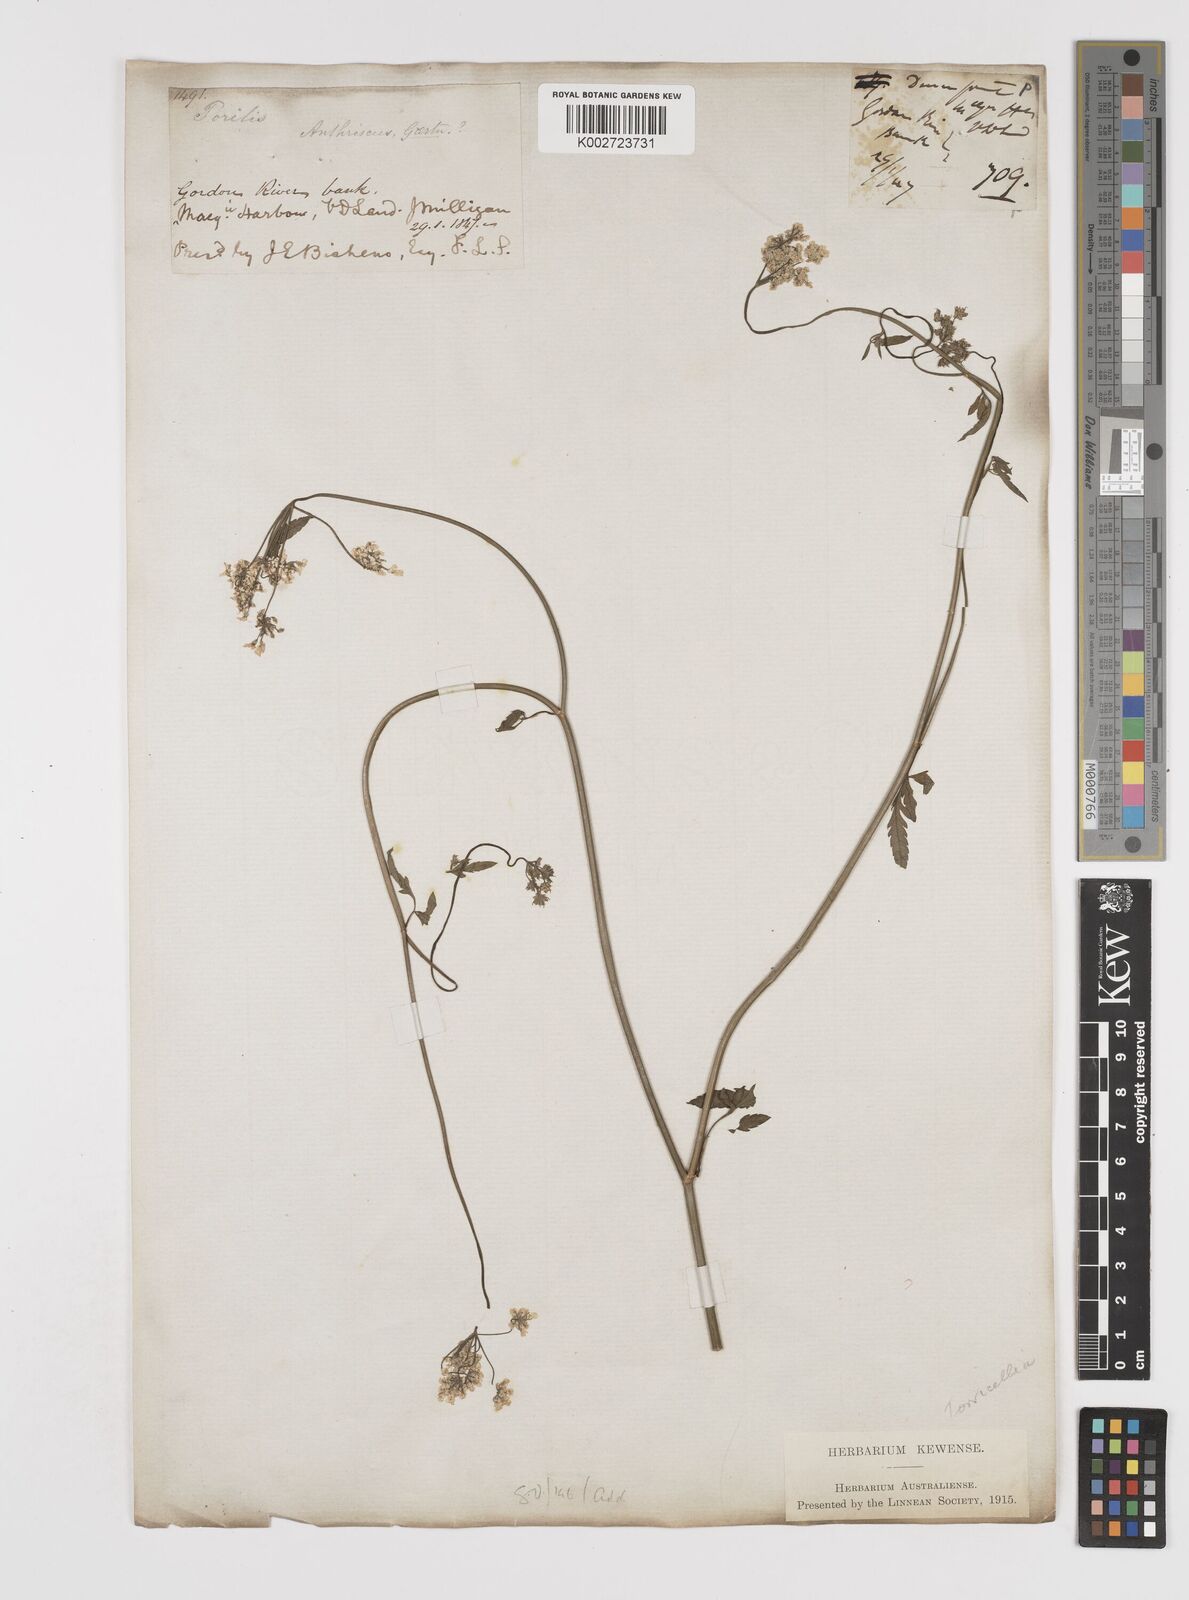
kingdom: Plantae
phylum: Tracheophyta
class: Magnoliopsida
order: Apiales
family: Apiaceae
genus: Torilis
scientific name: Torilis arvensis
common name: Spreading hedge-parsley
